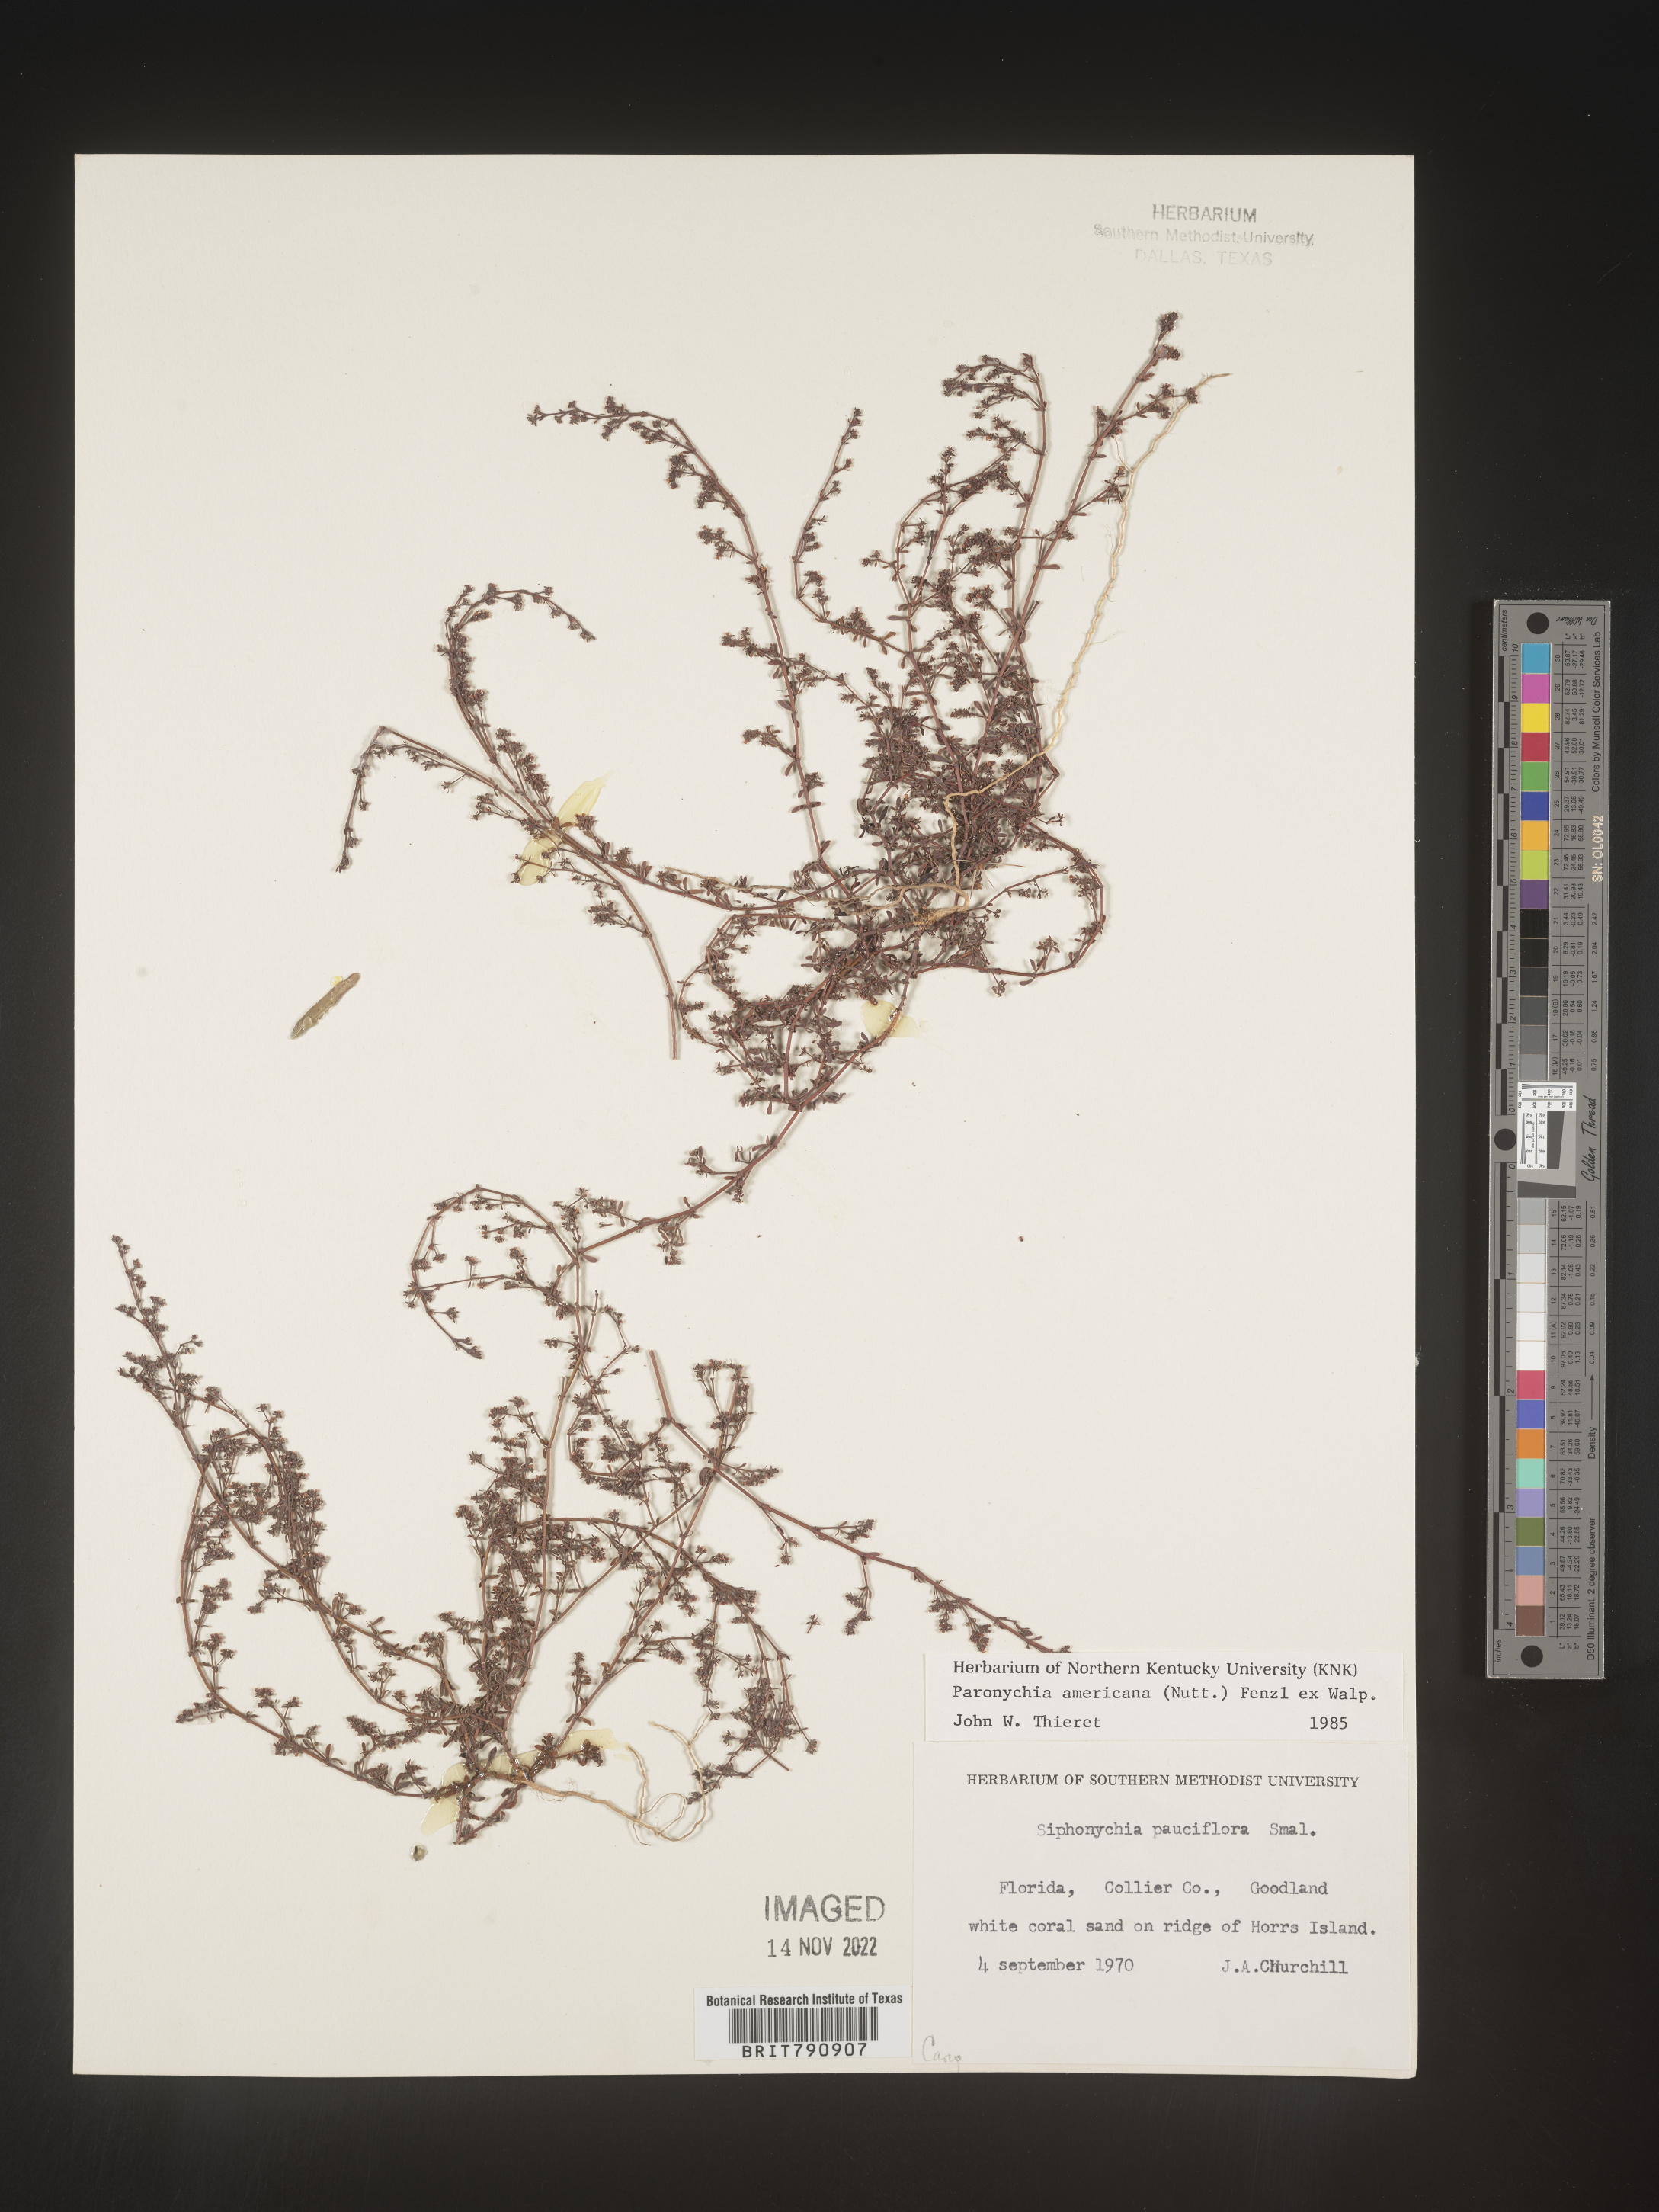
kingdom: Plantae
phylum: Tracheophyta
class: Magnoliopsida
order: Caryophyllales
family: Caryophyllaceae
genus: Paronychia
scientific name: Paronychia americana
